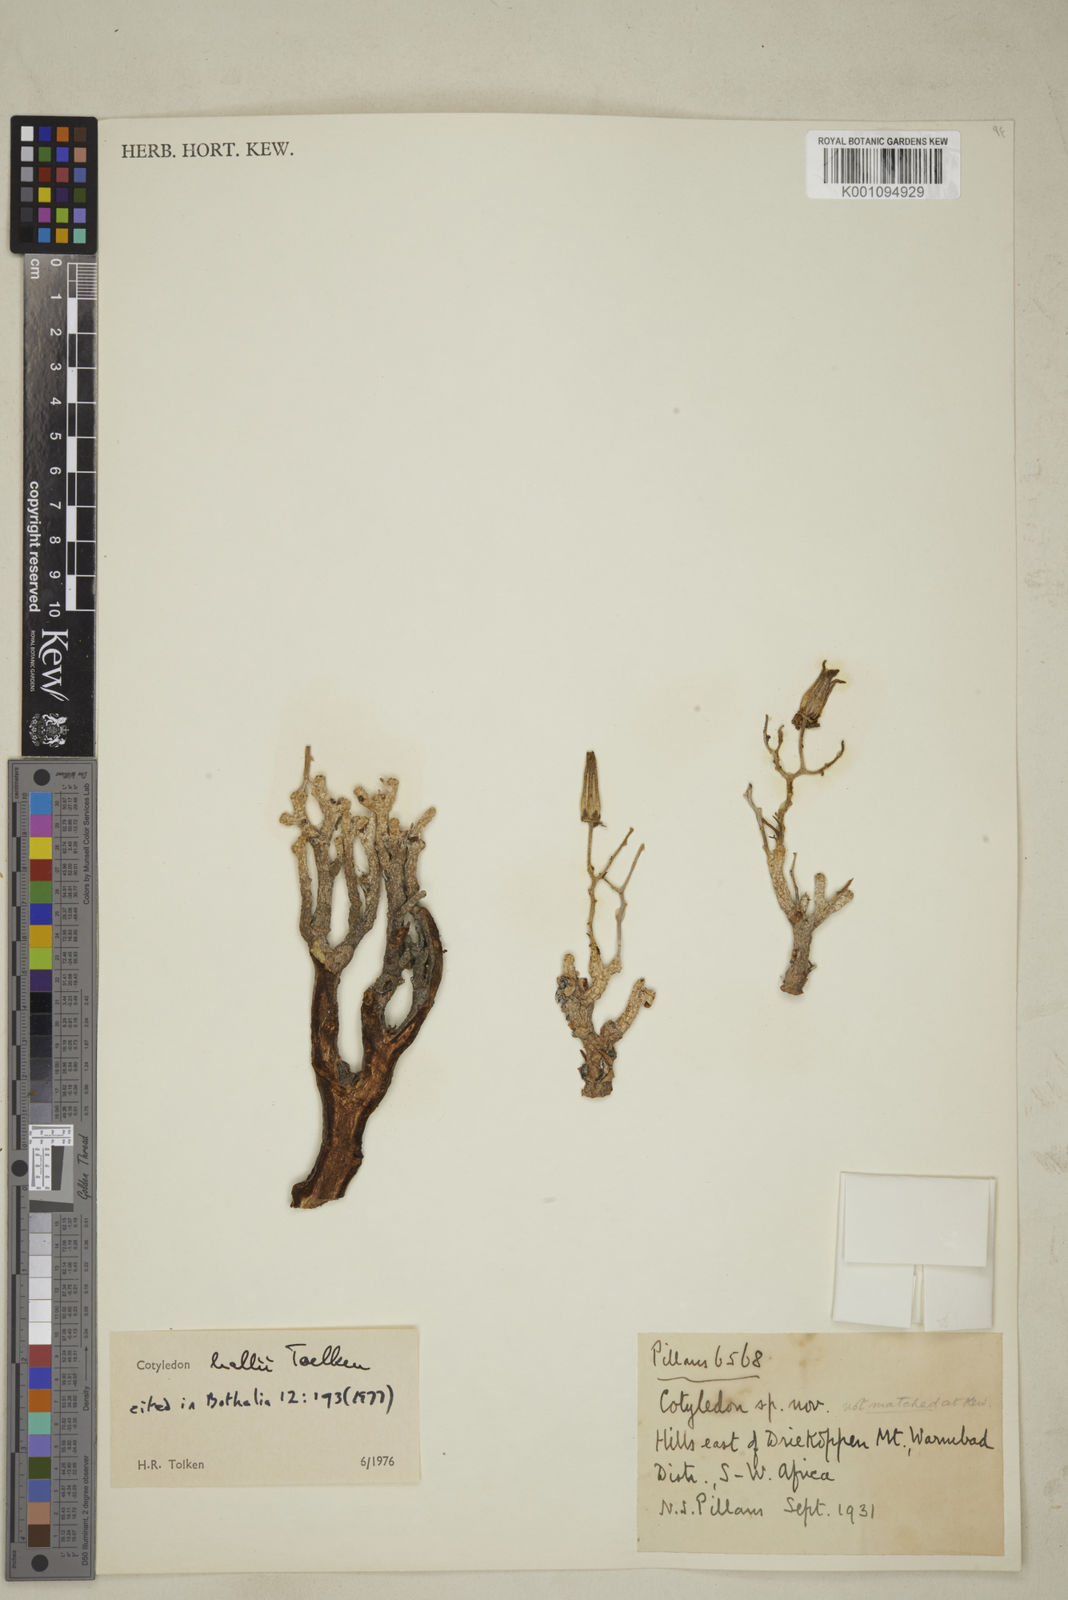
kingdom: Plantae
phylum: Tracheophyta
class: Magnoliopsida
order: Saxifragales
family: Crassulaceae
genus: Tylecodon
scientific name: Tylecodon hallii
